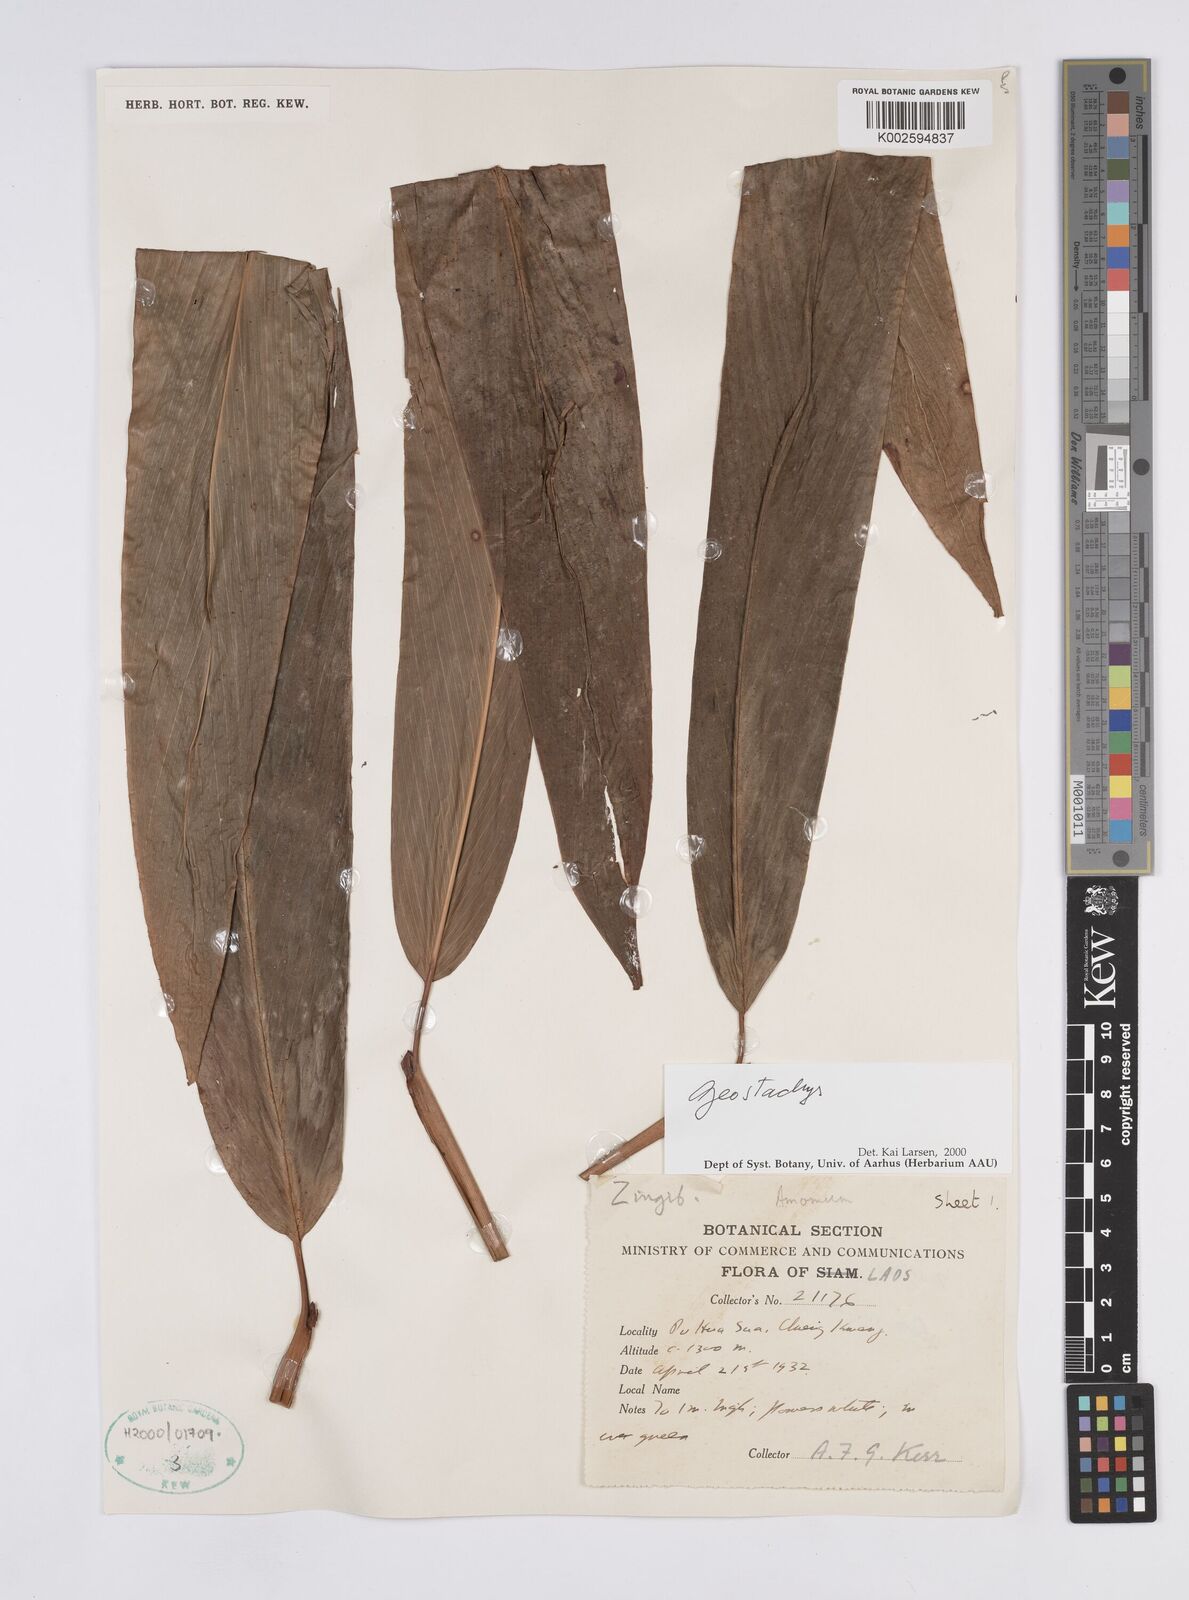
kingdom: Plantae
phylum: Tracheophyta
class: Liliopsida
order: Zingiberales
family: Zingiberaceae
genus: Geostachys
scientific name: Geostachys
